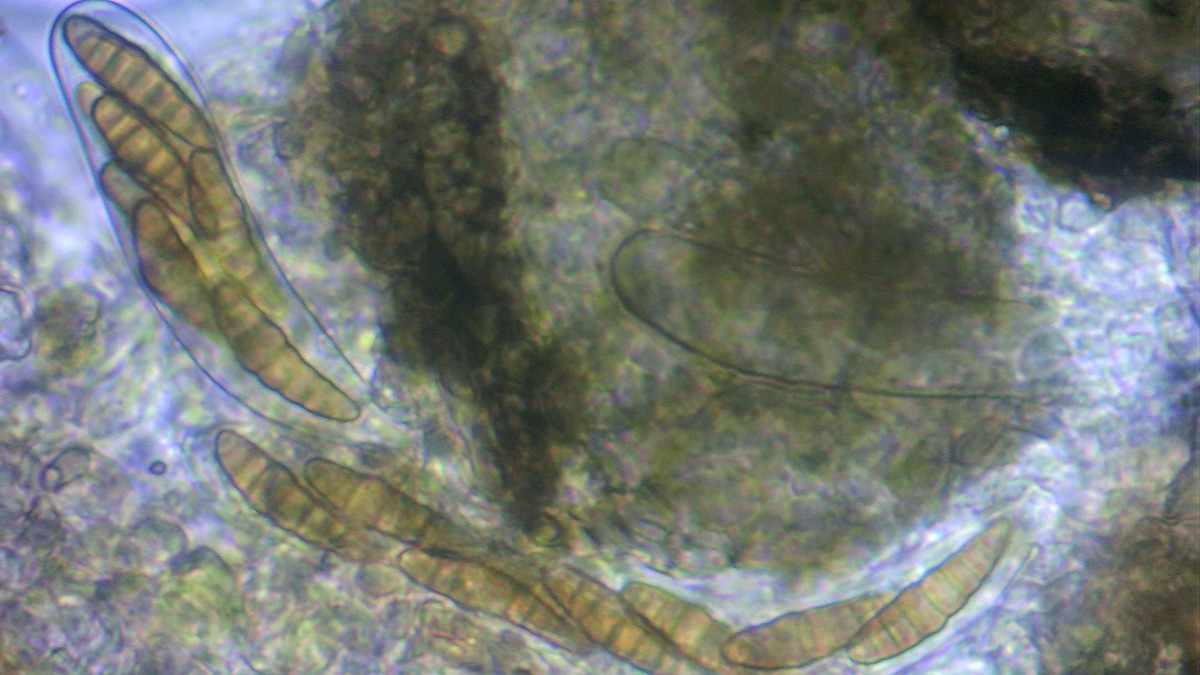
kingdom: Fungi
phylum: Ascomycota
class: Dothideomycetes
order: Pleosporales
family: Phaeosphaeriaceae
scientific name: Phaeosphaeriaceae
